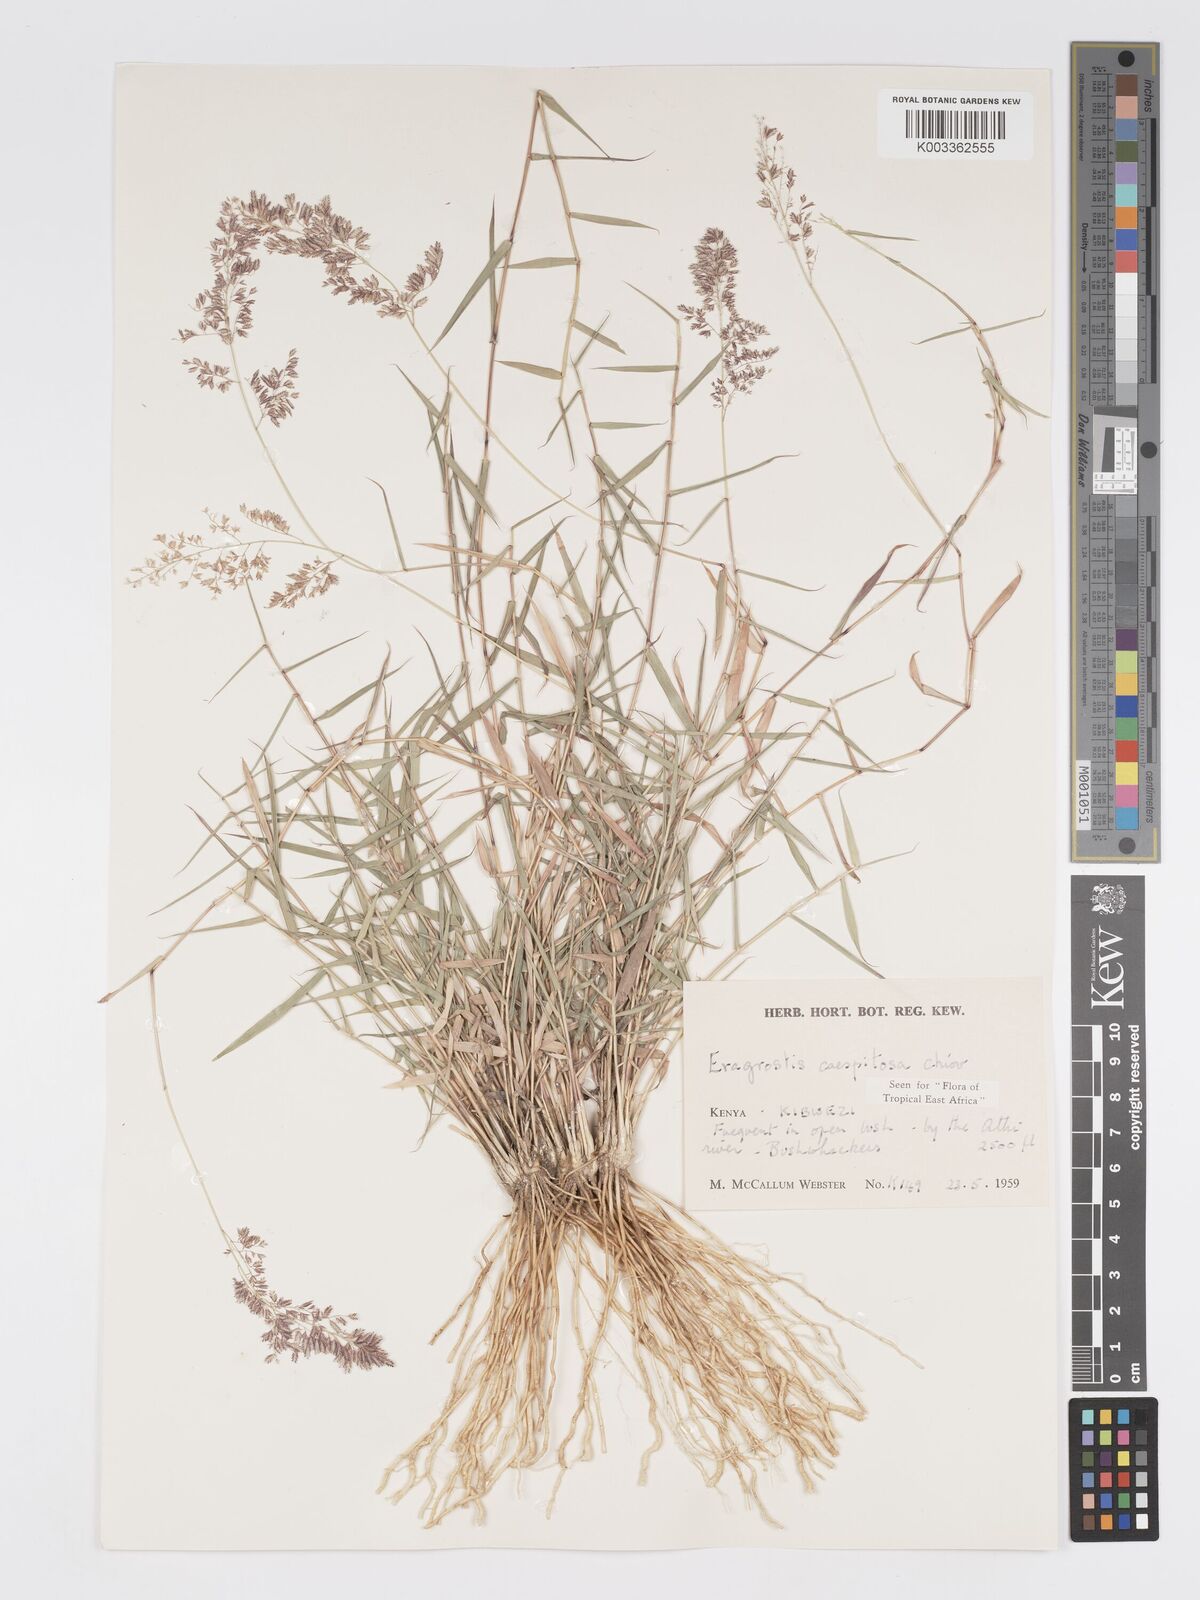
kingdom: Plantae
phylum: Tracheophyta
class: Liliopsida
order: Poales
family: Poaceae
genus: Eragrostis
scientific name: Eragrostis caespitosa
